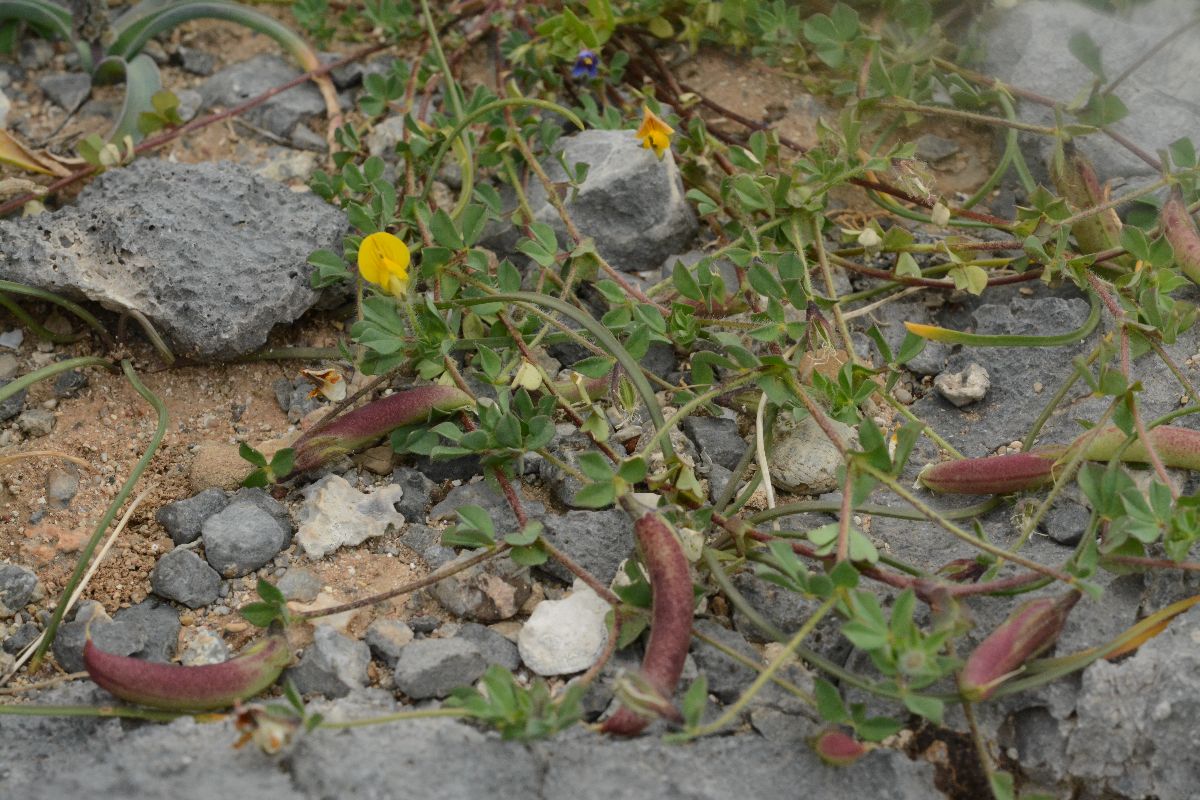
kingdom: Plantae
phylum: Tracheophyta
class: Magnoliopsida
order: Fabales
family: Fabaceae
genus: Lotus
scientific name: Lotus edulis
